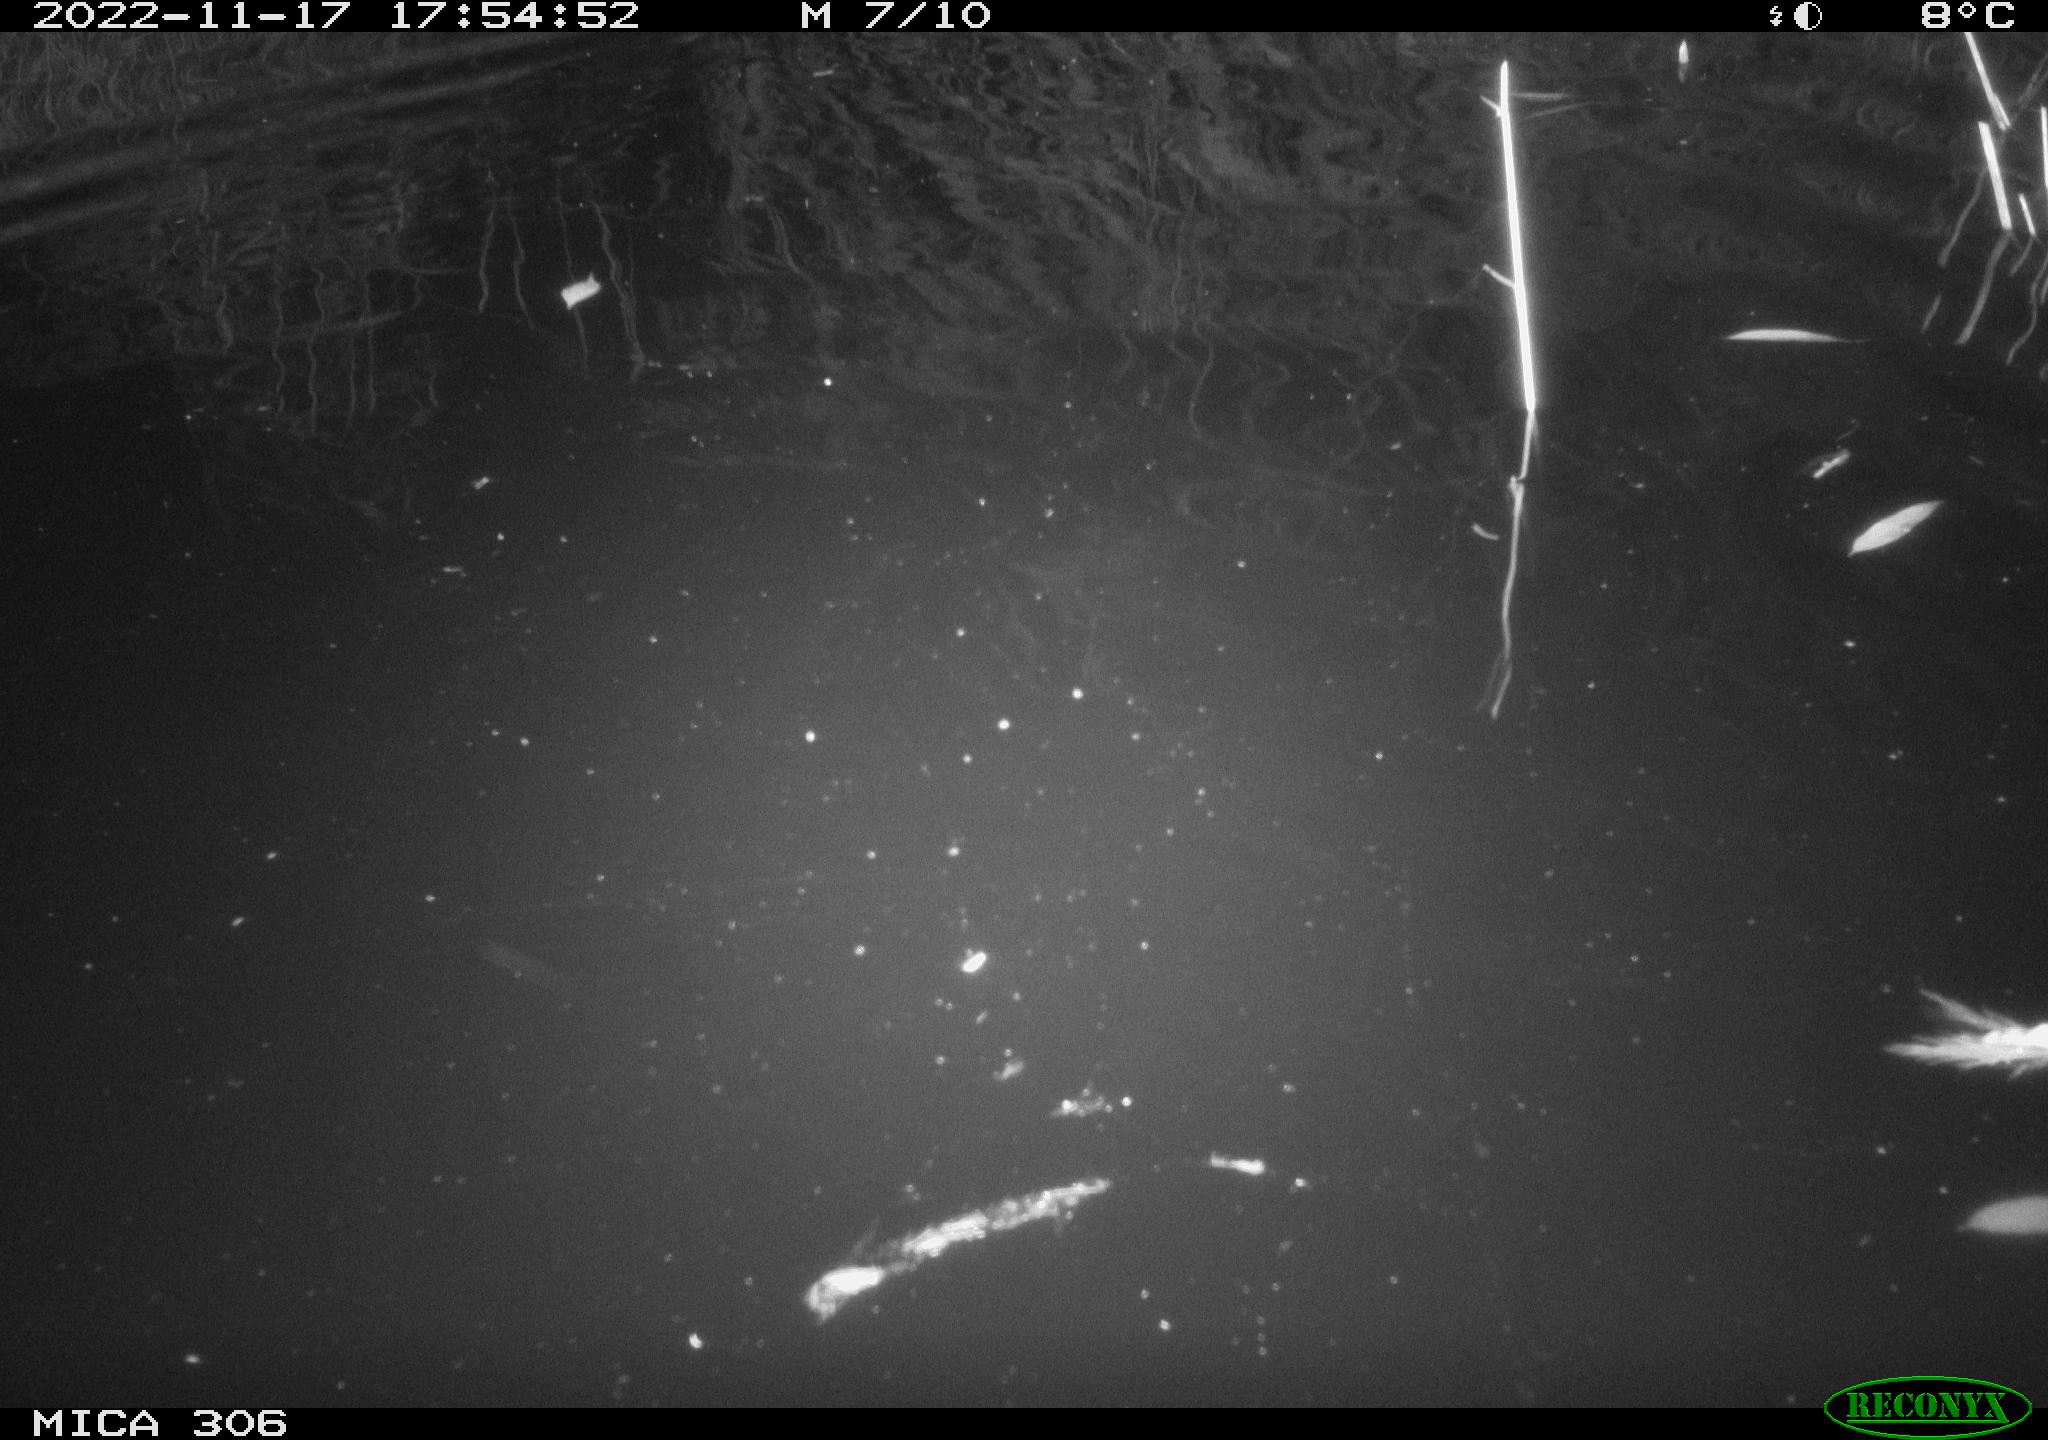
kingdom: Animalia
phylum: Chordata
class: Mammalia
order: Rodentia
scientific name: Rodentia
